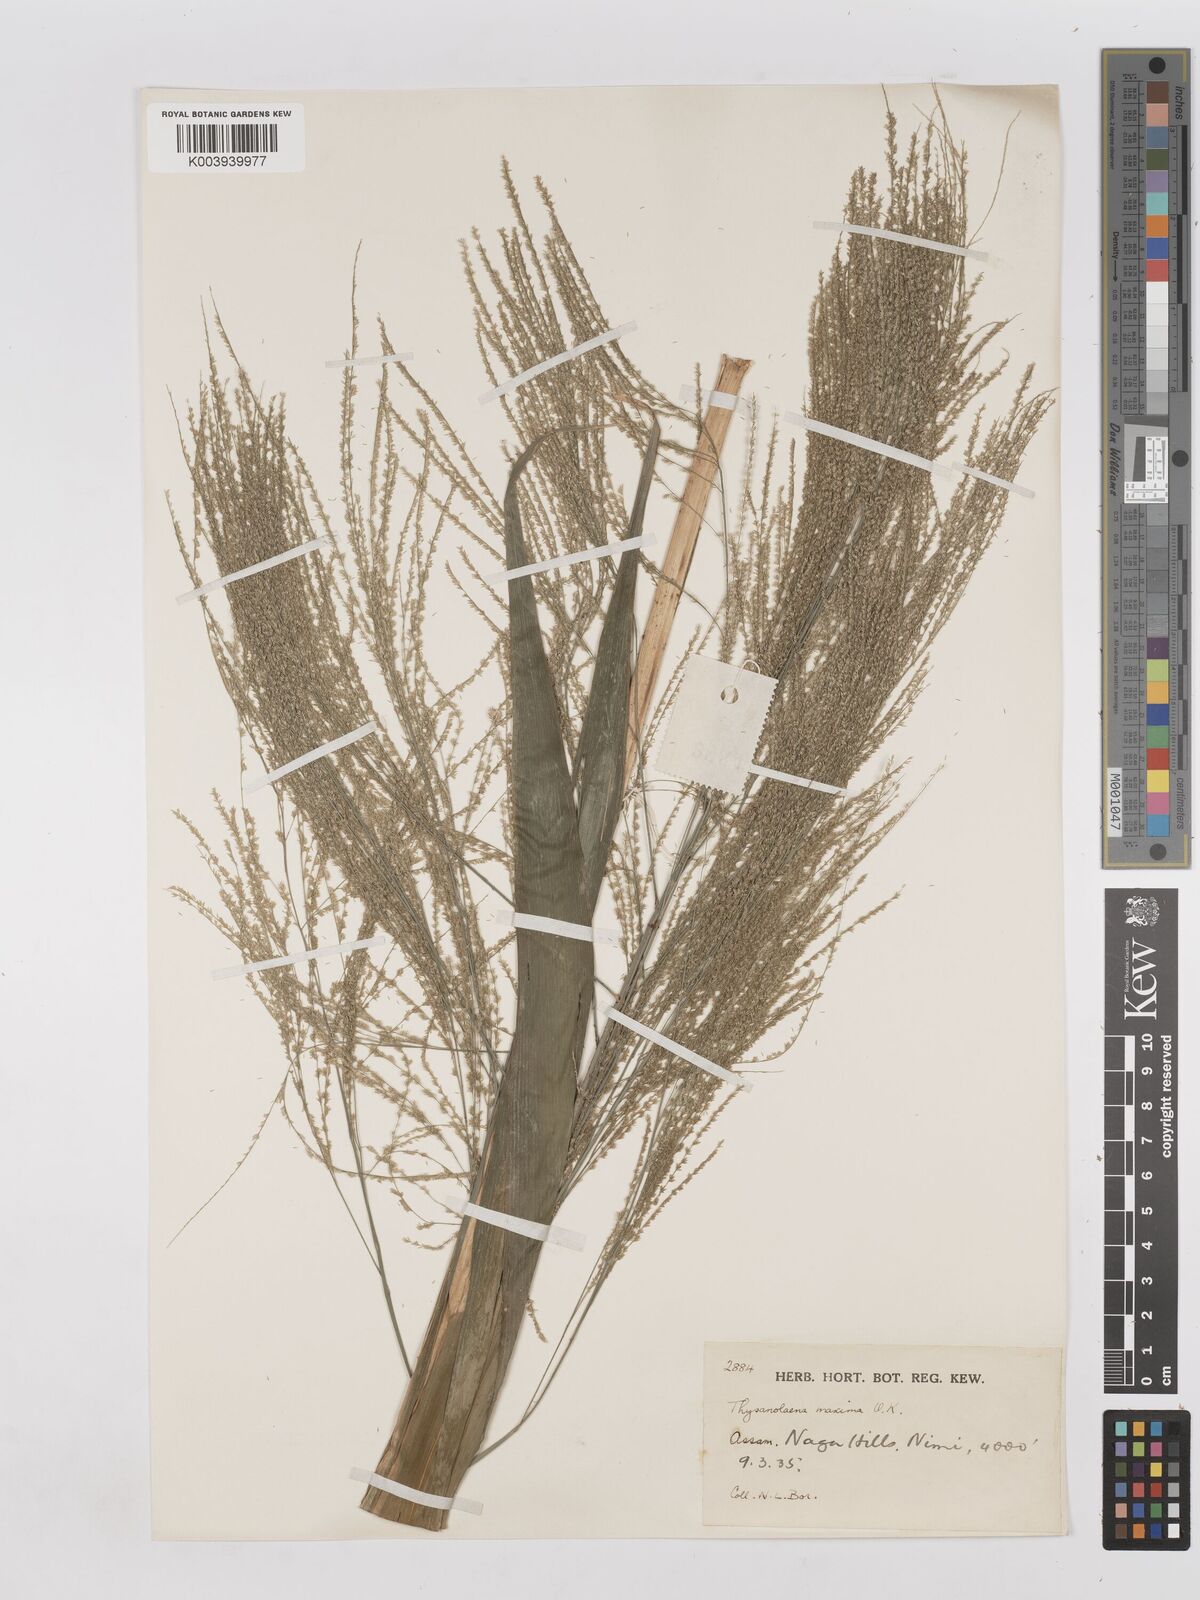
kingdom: Plantae
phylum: Tracheophyta
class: Liliopsida
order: Poales
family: Poaceae
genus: Thysanolaena
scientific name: Thysanolaena latifolia
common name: Tiger grass
